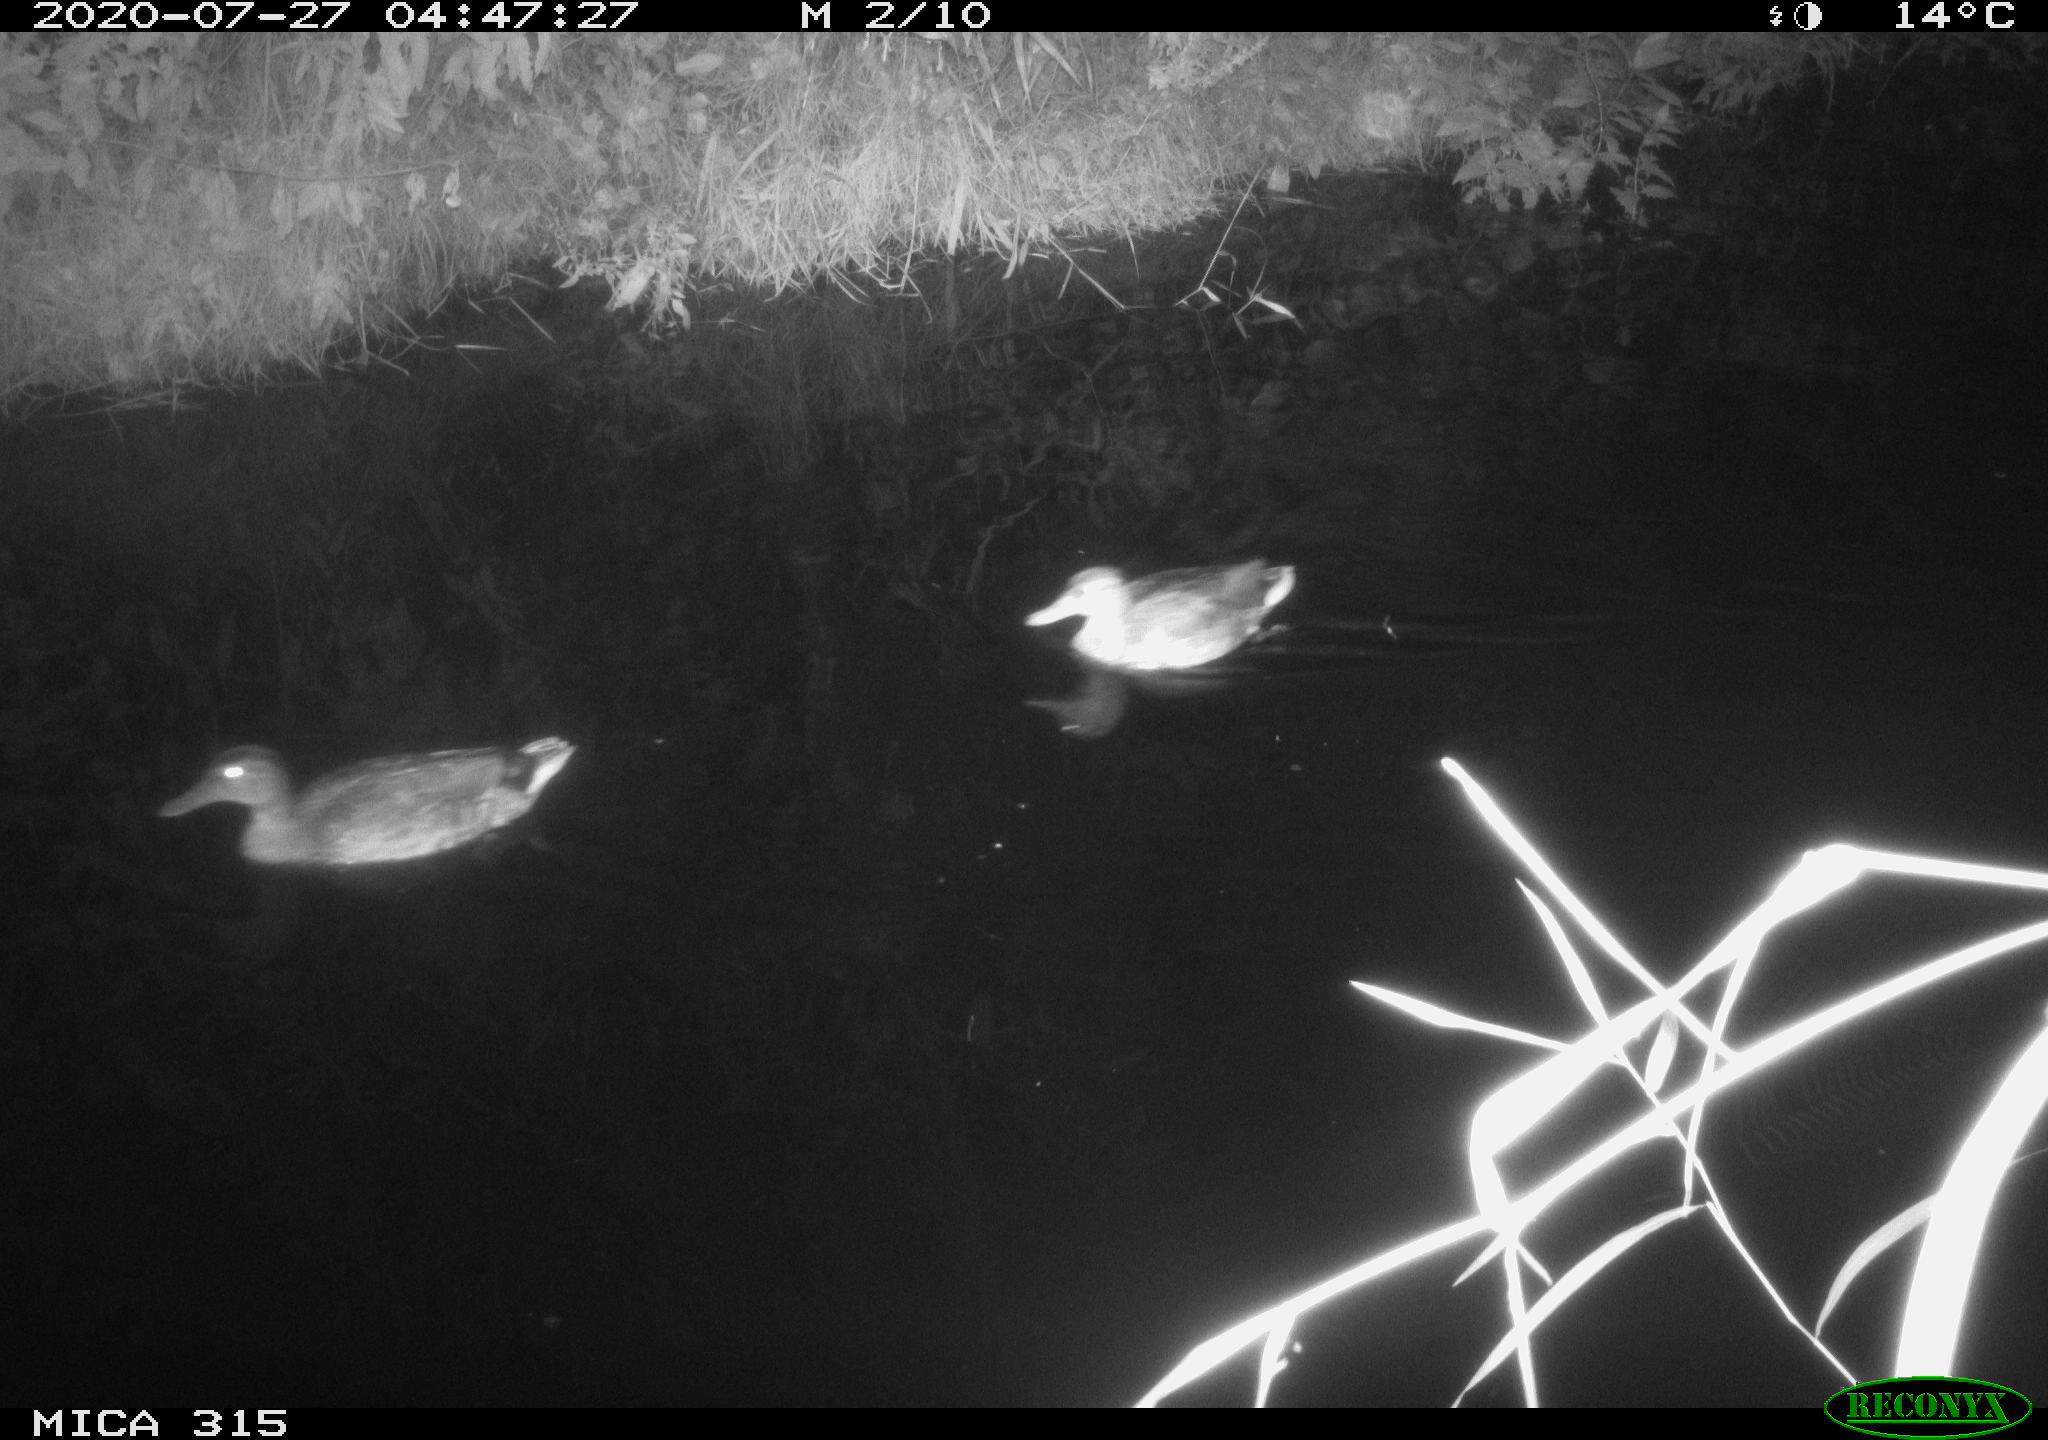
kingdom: Animalia
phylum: Chordata
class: Aves
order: Anseriformes
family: Anatidae
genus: Anas
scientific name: Anas platyrhynchos
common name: Mallard
